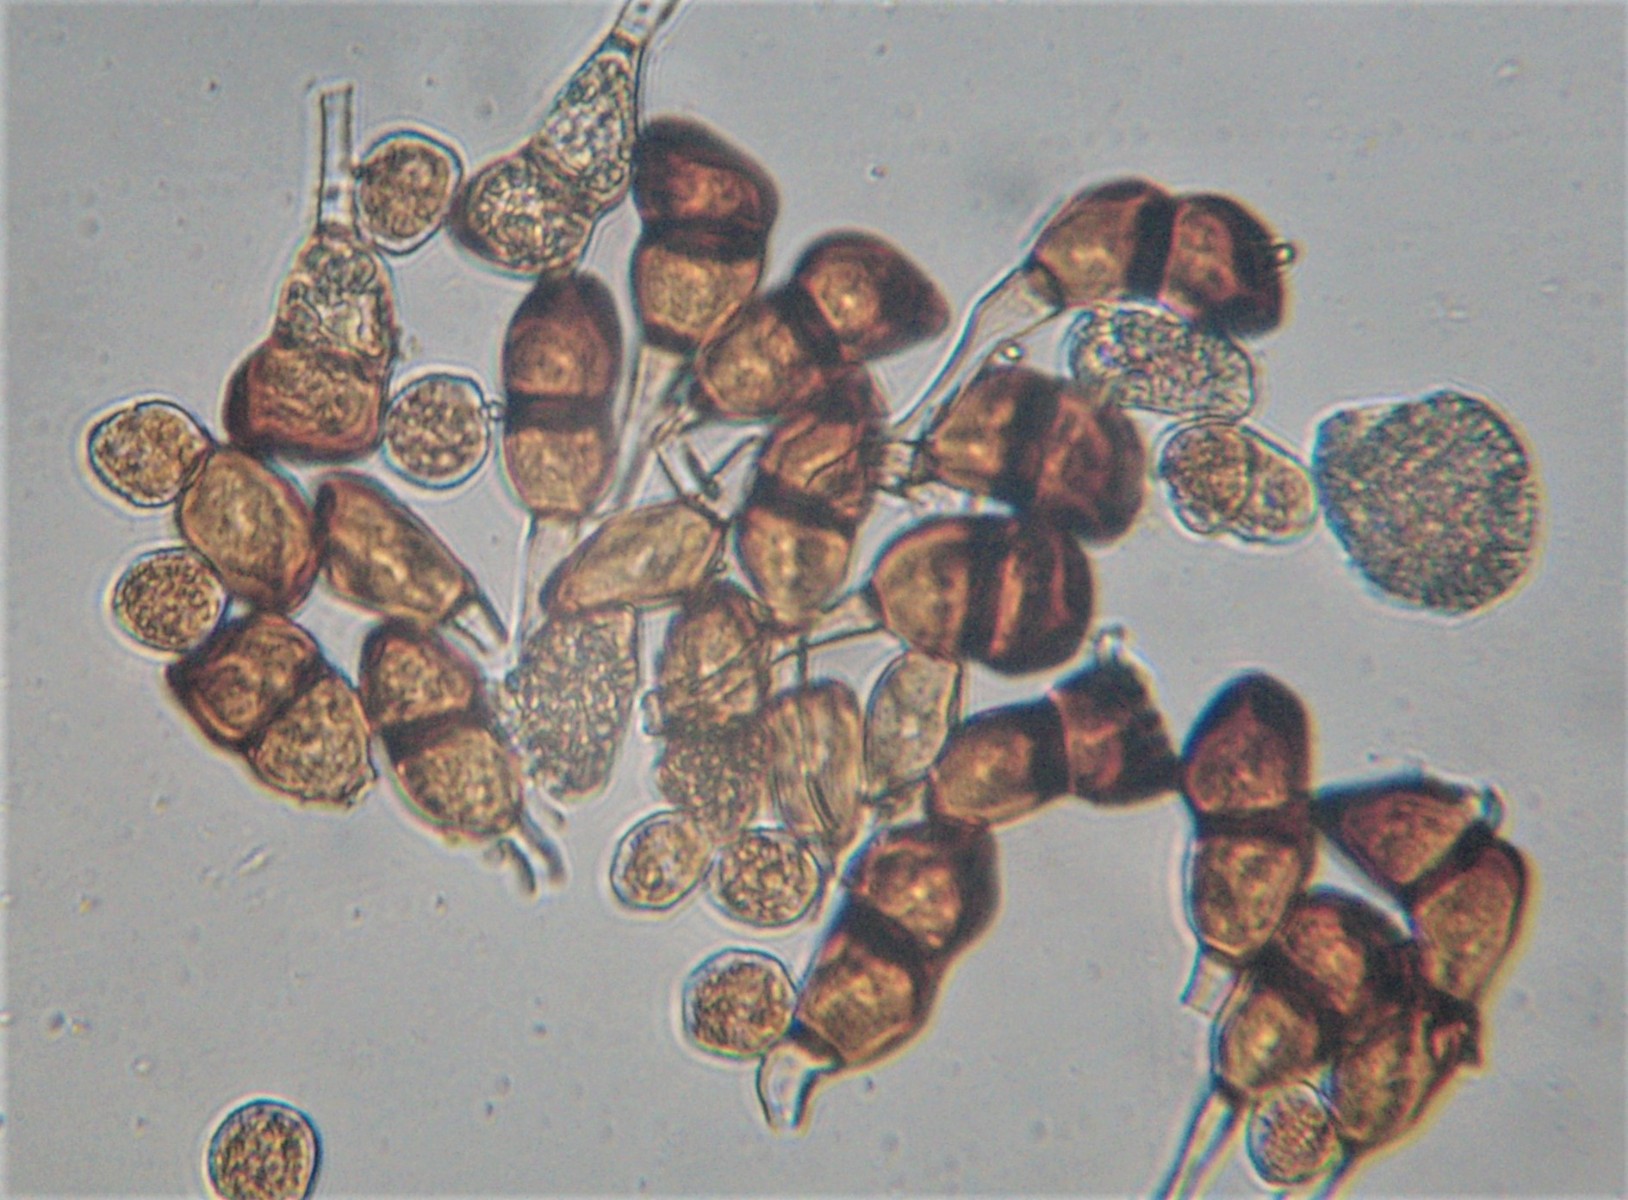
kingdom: Fungi
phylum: Basidiomycota
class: Pucciniomycetes
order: Pucciniales
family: Pucciniaceae
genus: Puccinia
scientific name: Puccinia distincta
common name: Daisy rust
